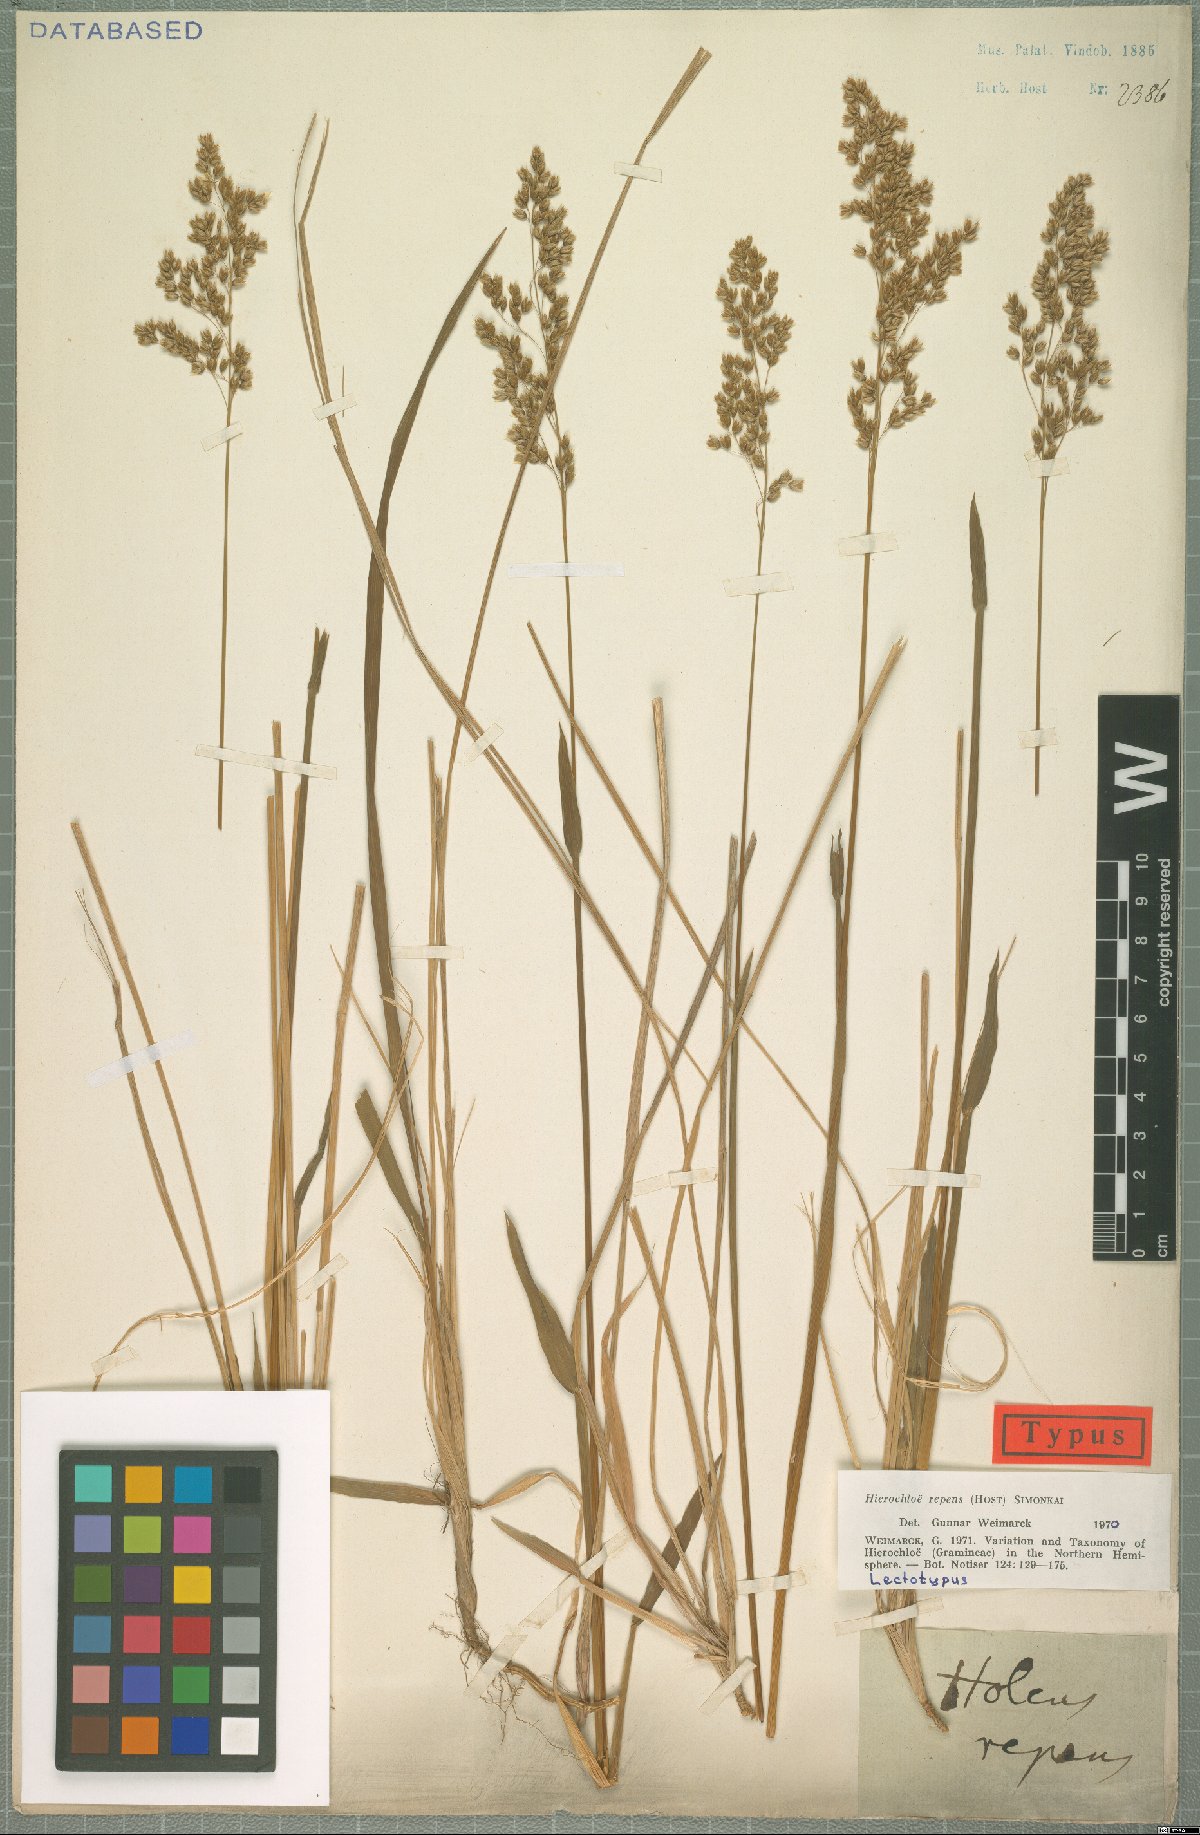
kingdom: Plantae
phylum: Tracheophyta
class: Liliopsida
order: Poales
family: Poaceae
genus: Anthoxanthum
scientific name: Anthoxanthum repens
